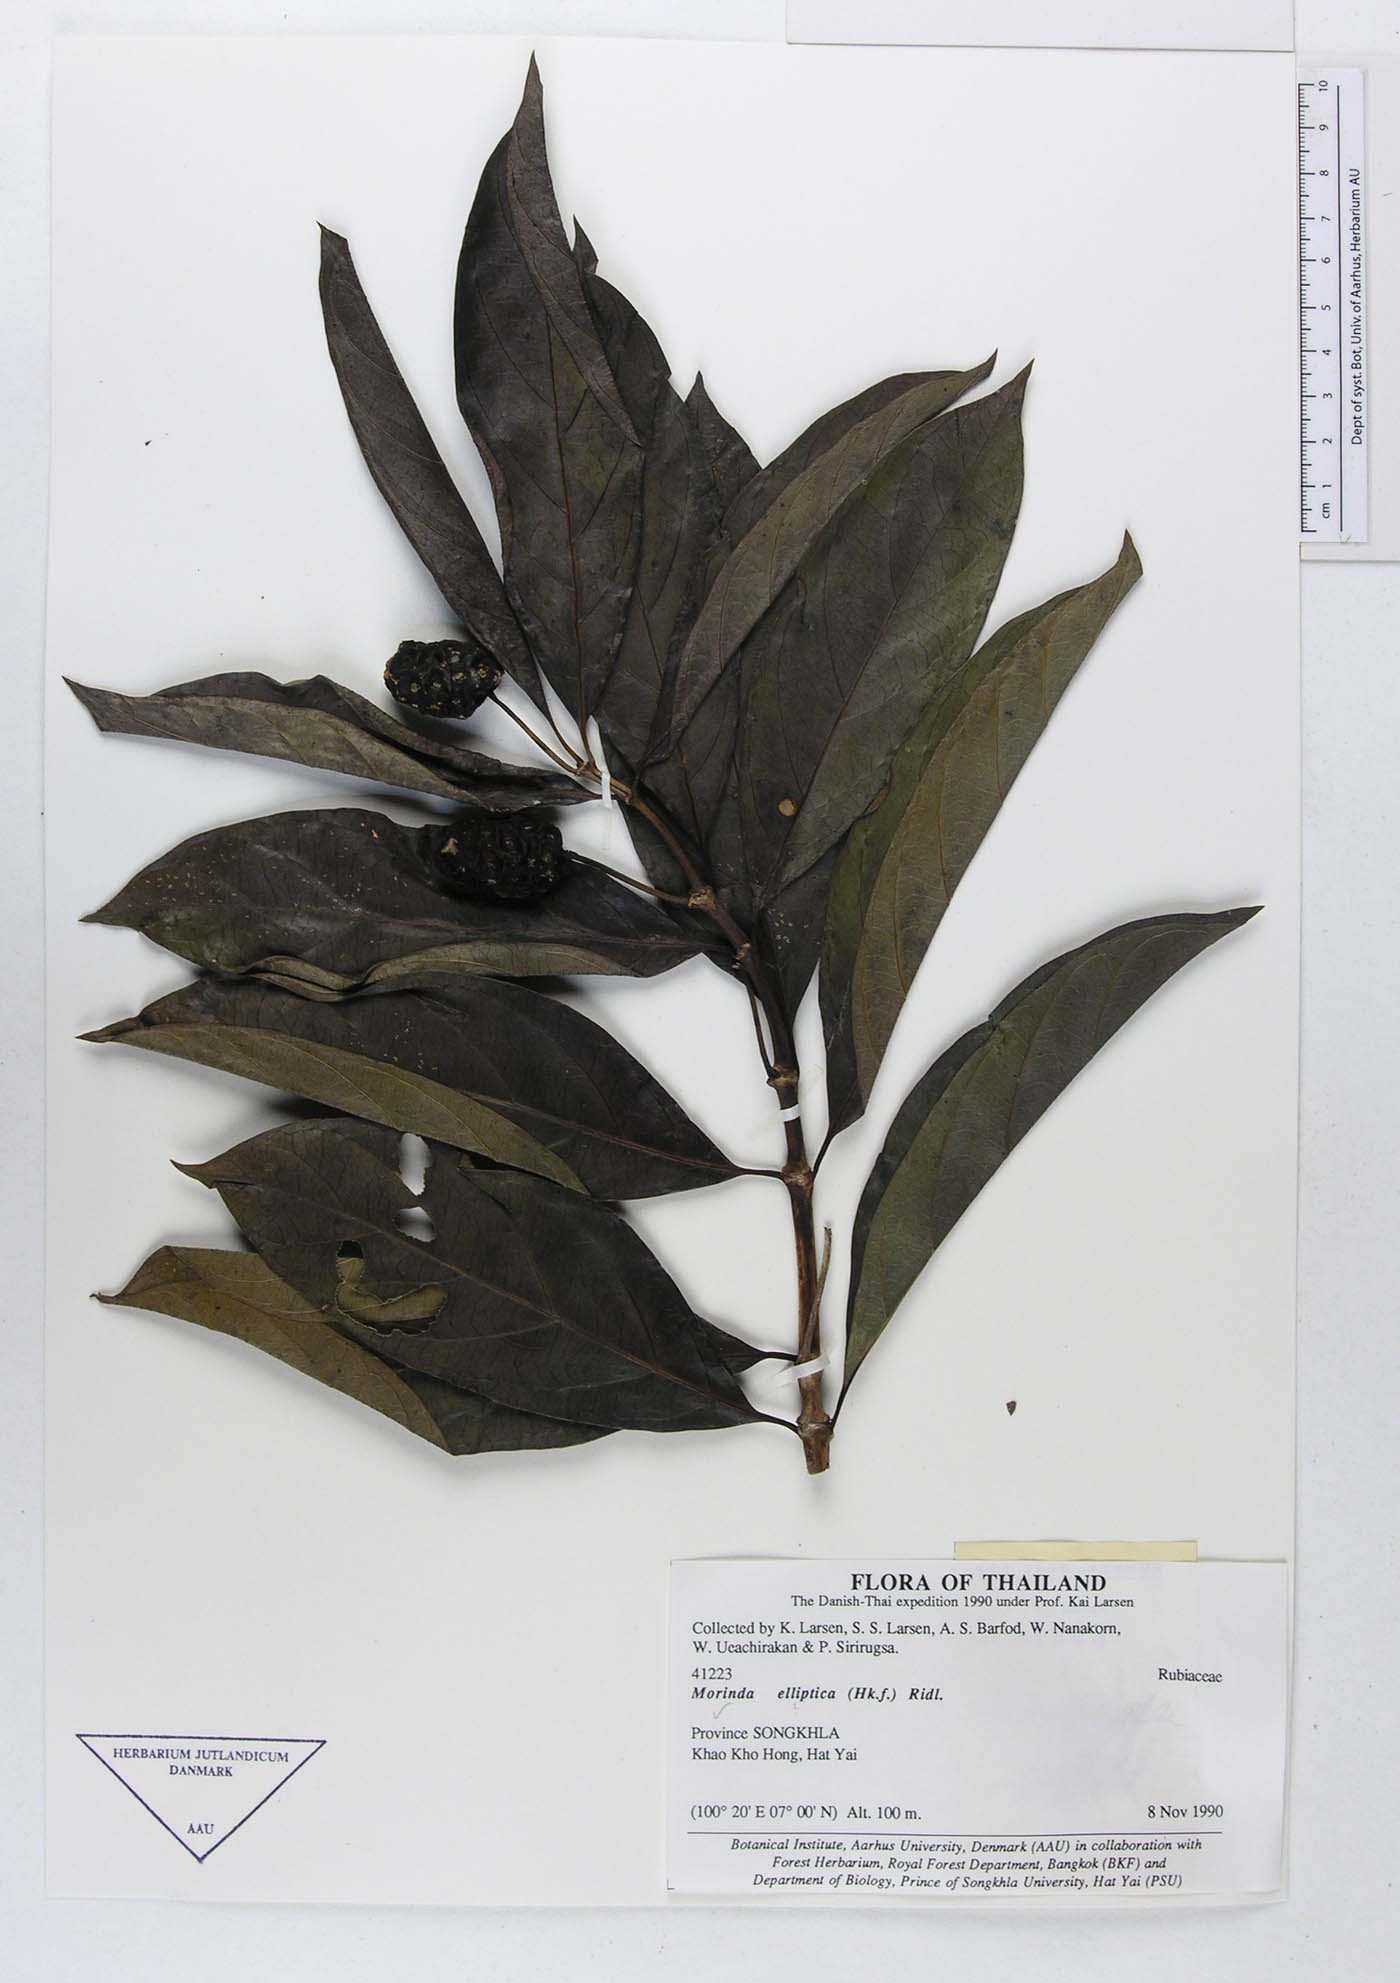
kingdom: Plantae
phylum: Tracheophyta
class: Magnoliopsida
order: Gentianales
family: Rubiaceae
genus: Morinda
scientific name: Morinda elliptica
